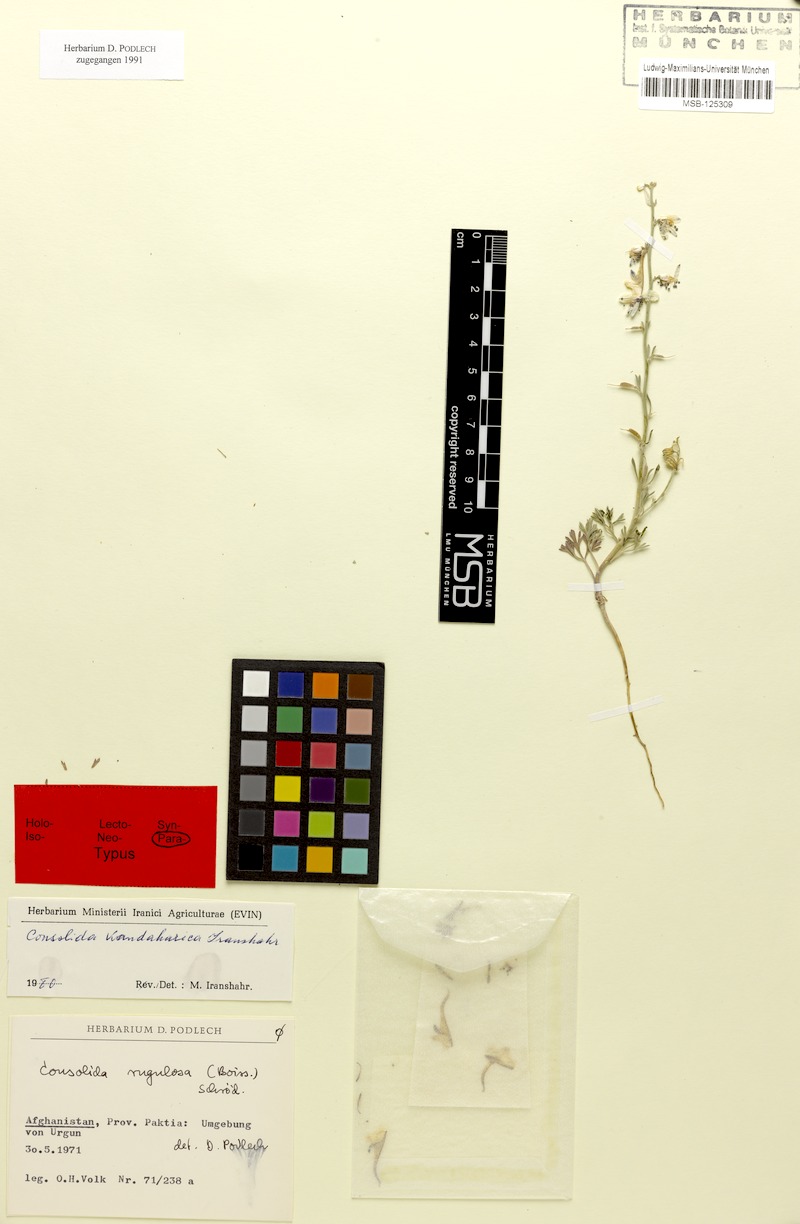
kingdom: Plantae
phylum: Tracheophyta
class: Magnoliopsida
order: Ranunculales
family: Ranunculaceae
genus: Delphinium
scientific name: Delphinium kandaharicum
